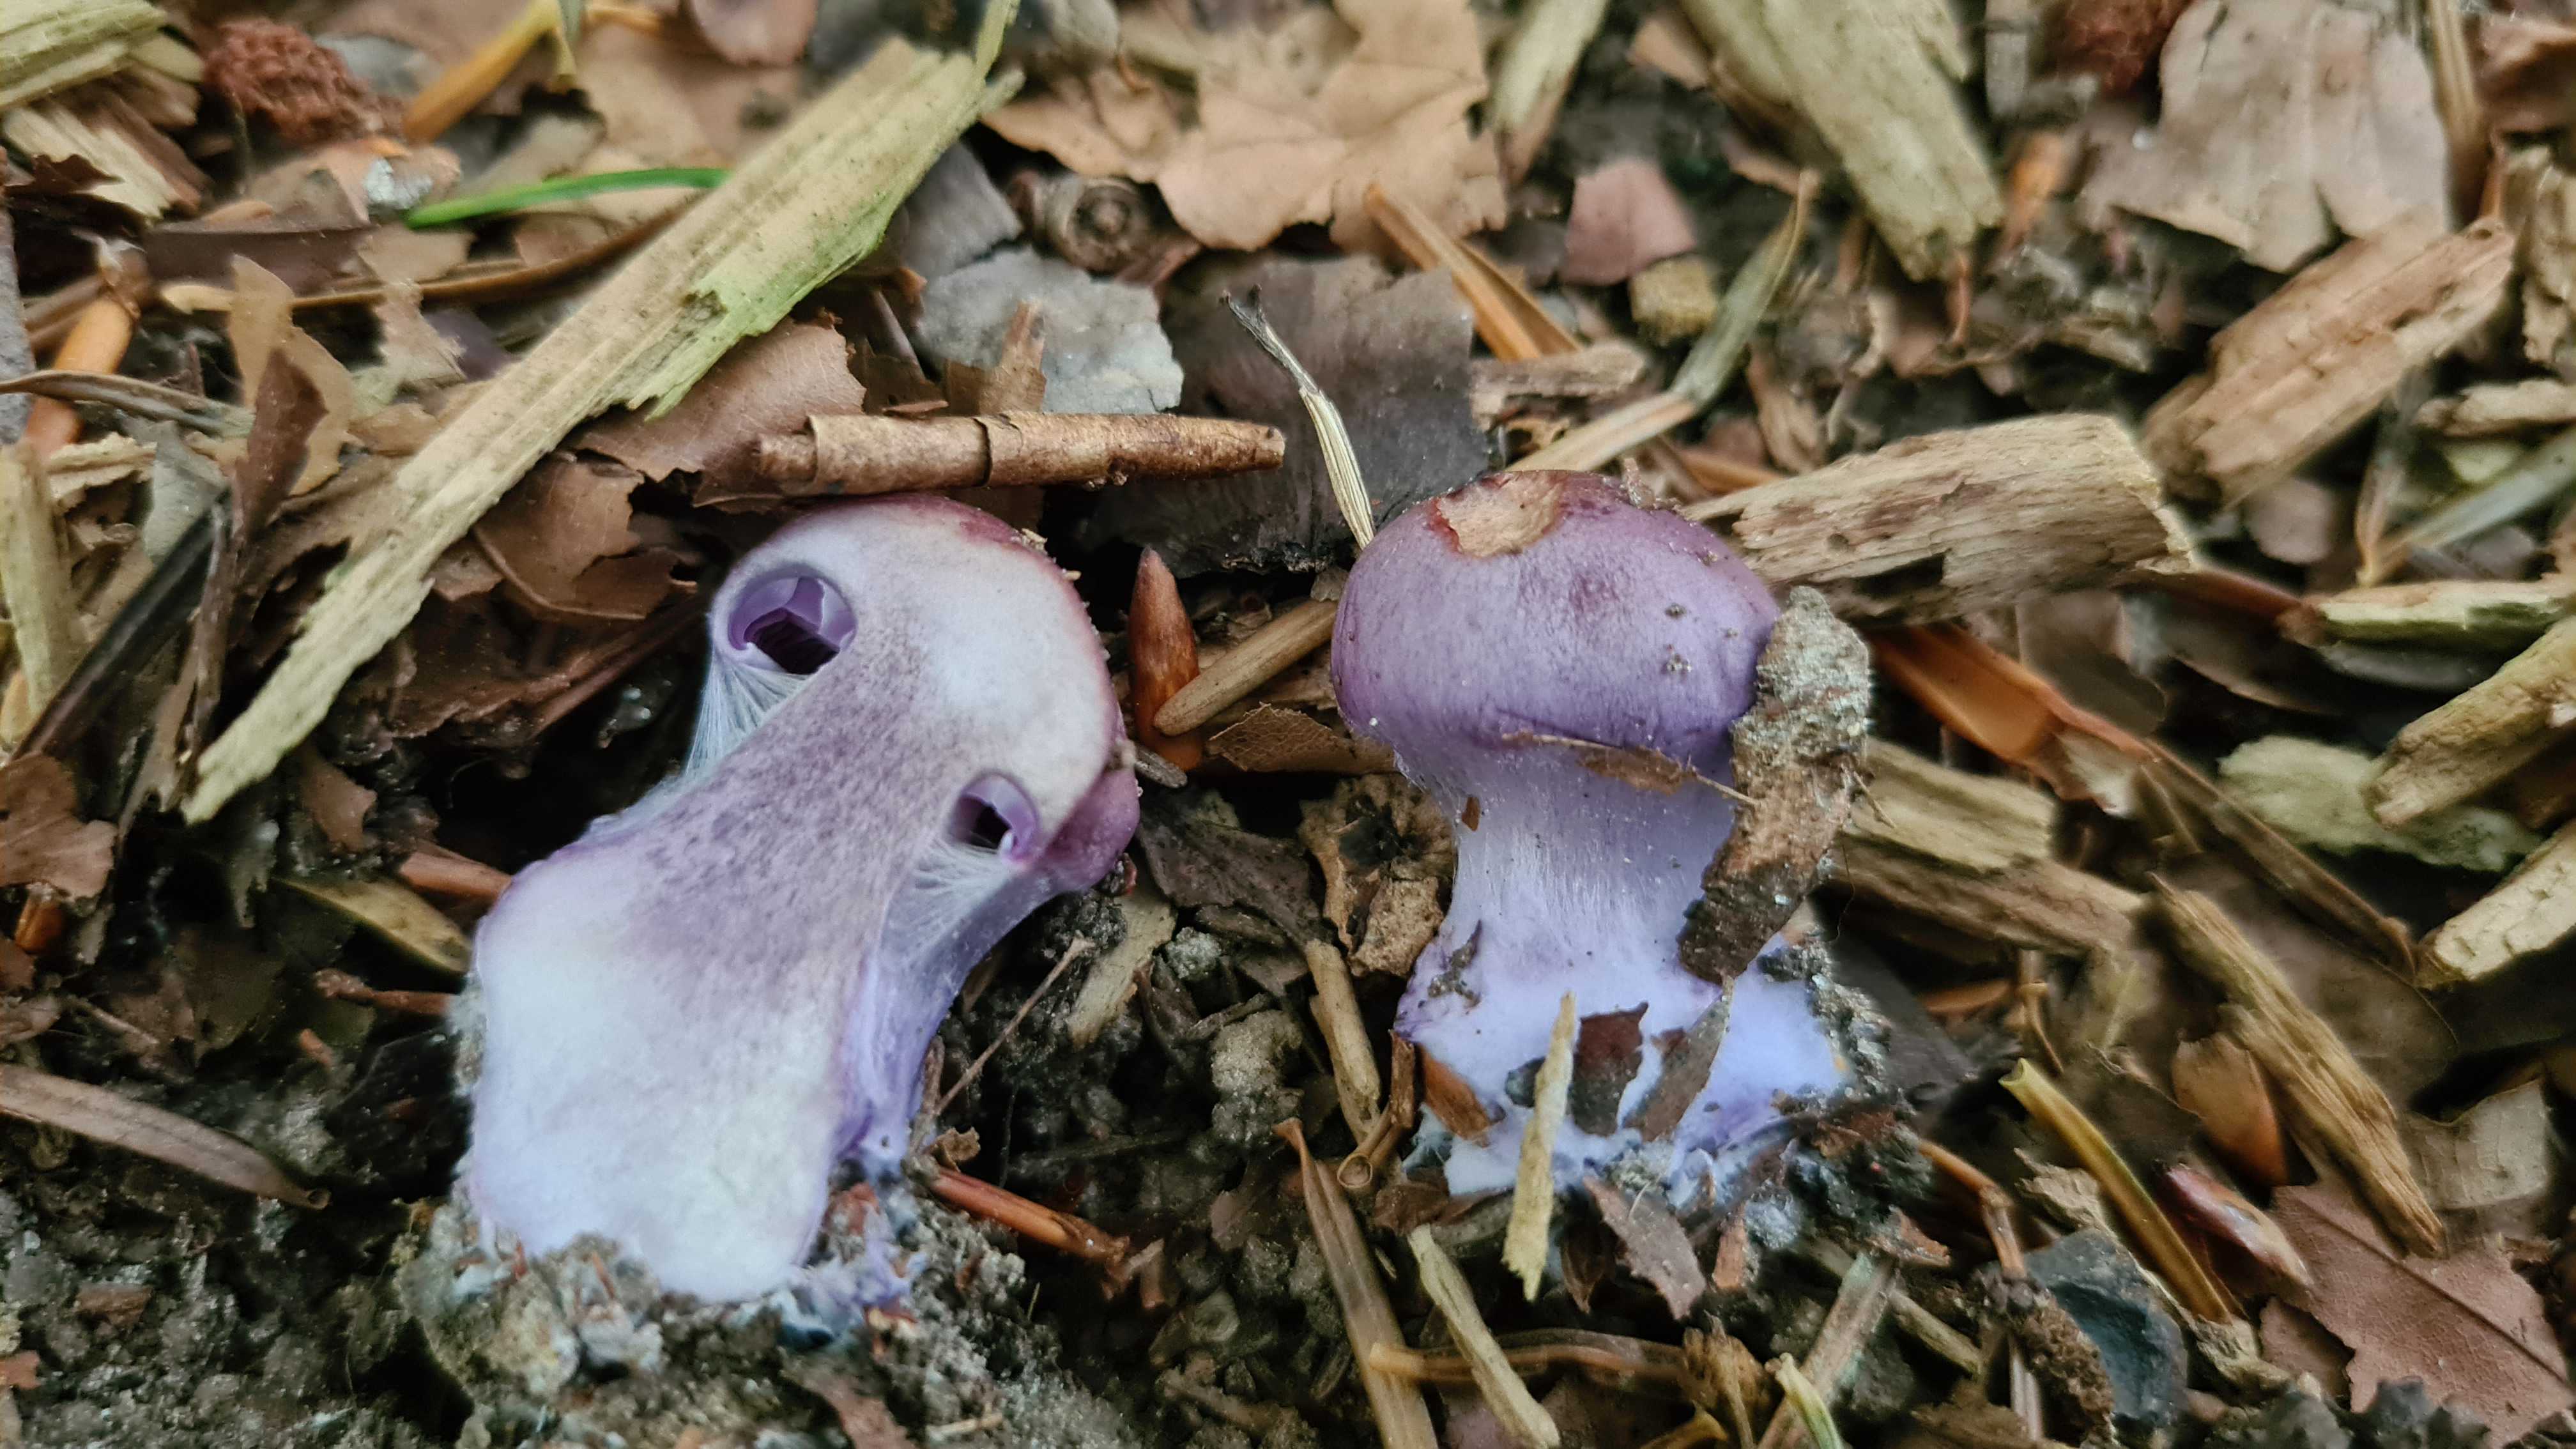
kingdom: Fungi
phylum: Basidiomycota
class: Agaricomycetes
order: Agaricales
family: Cortinariaceae
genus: Thaxterogaster
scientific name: Thaxterogaster purpurascens
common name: purpurbrun slørhat
